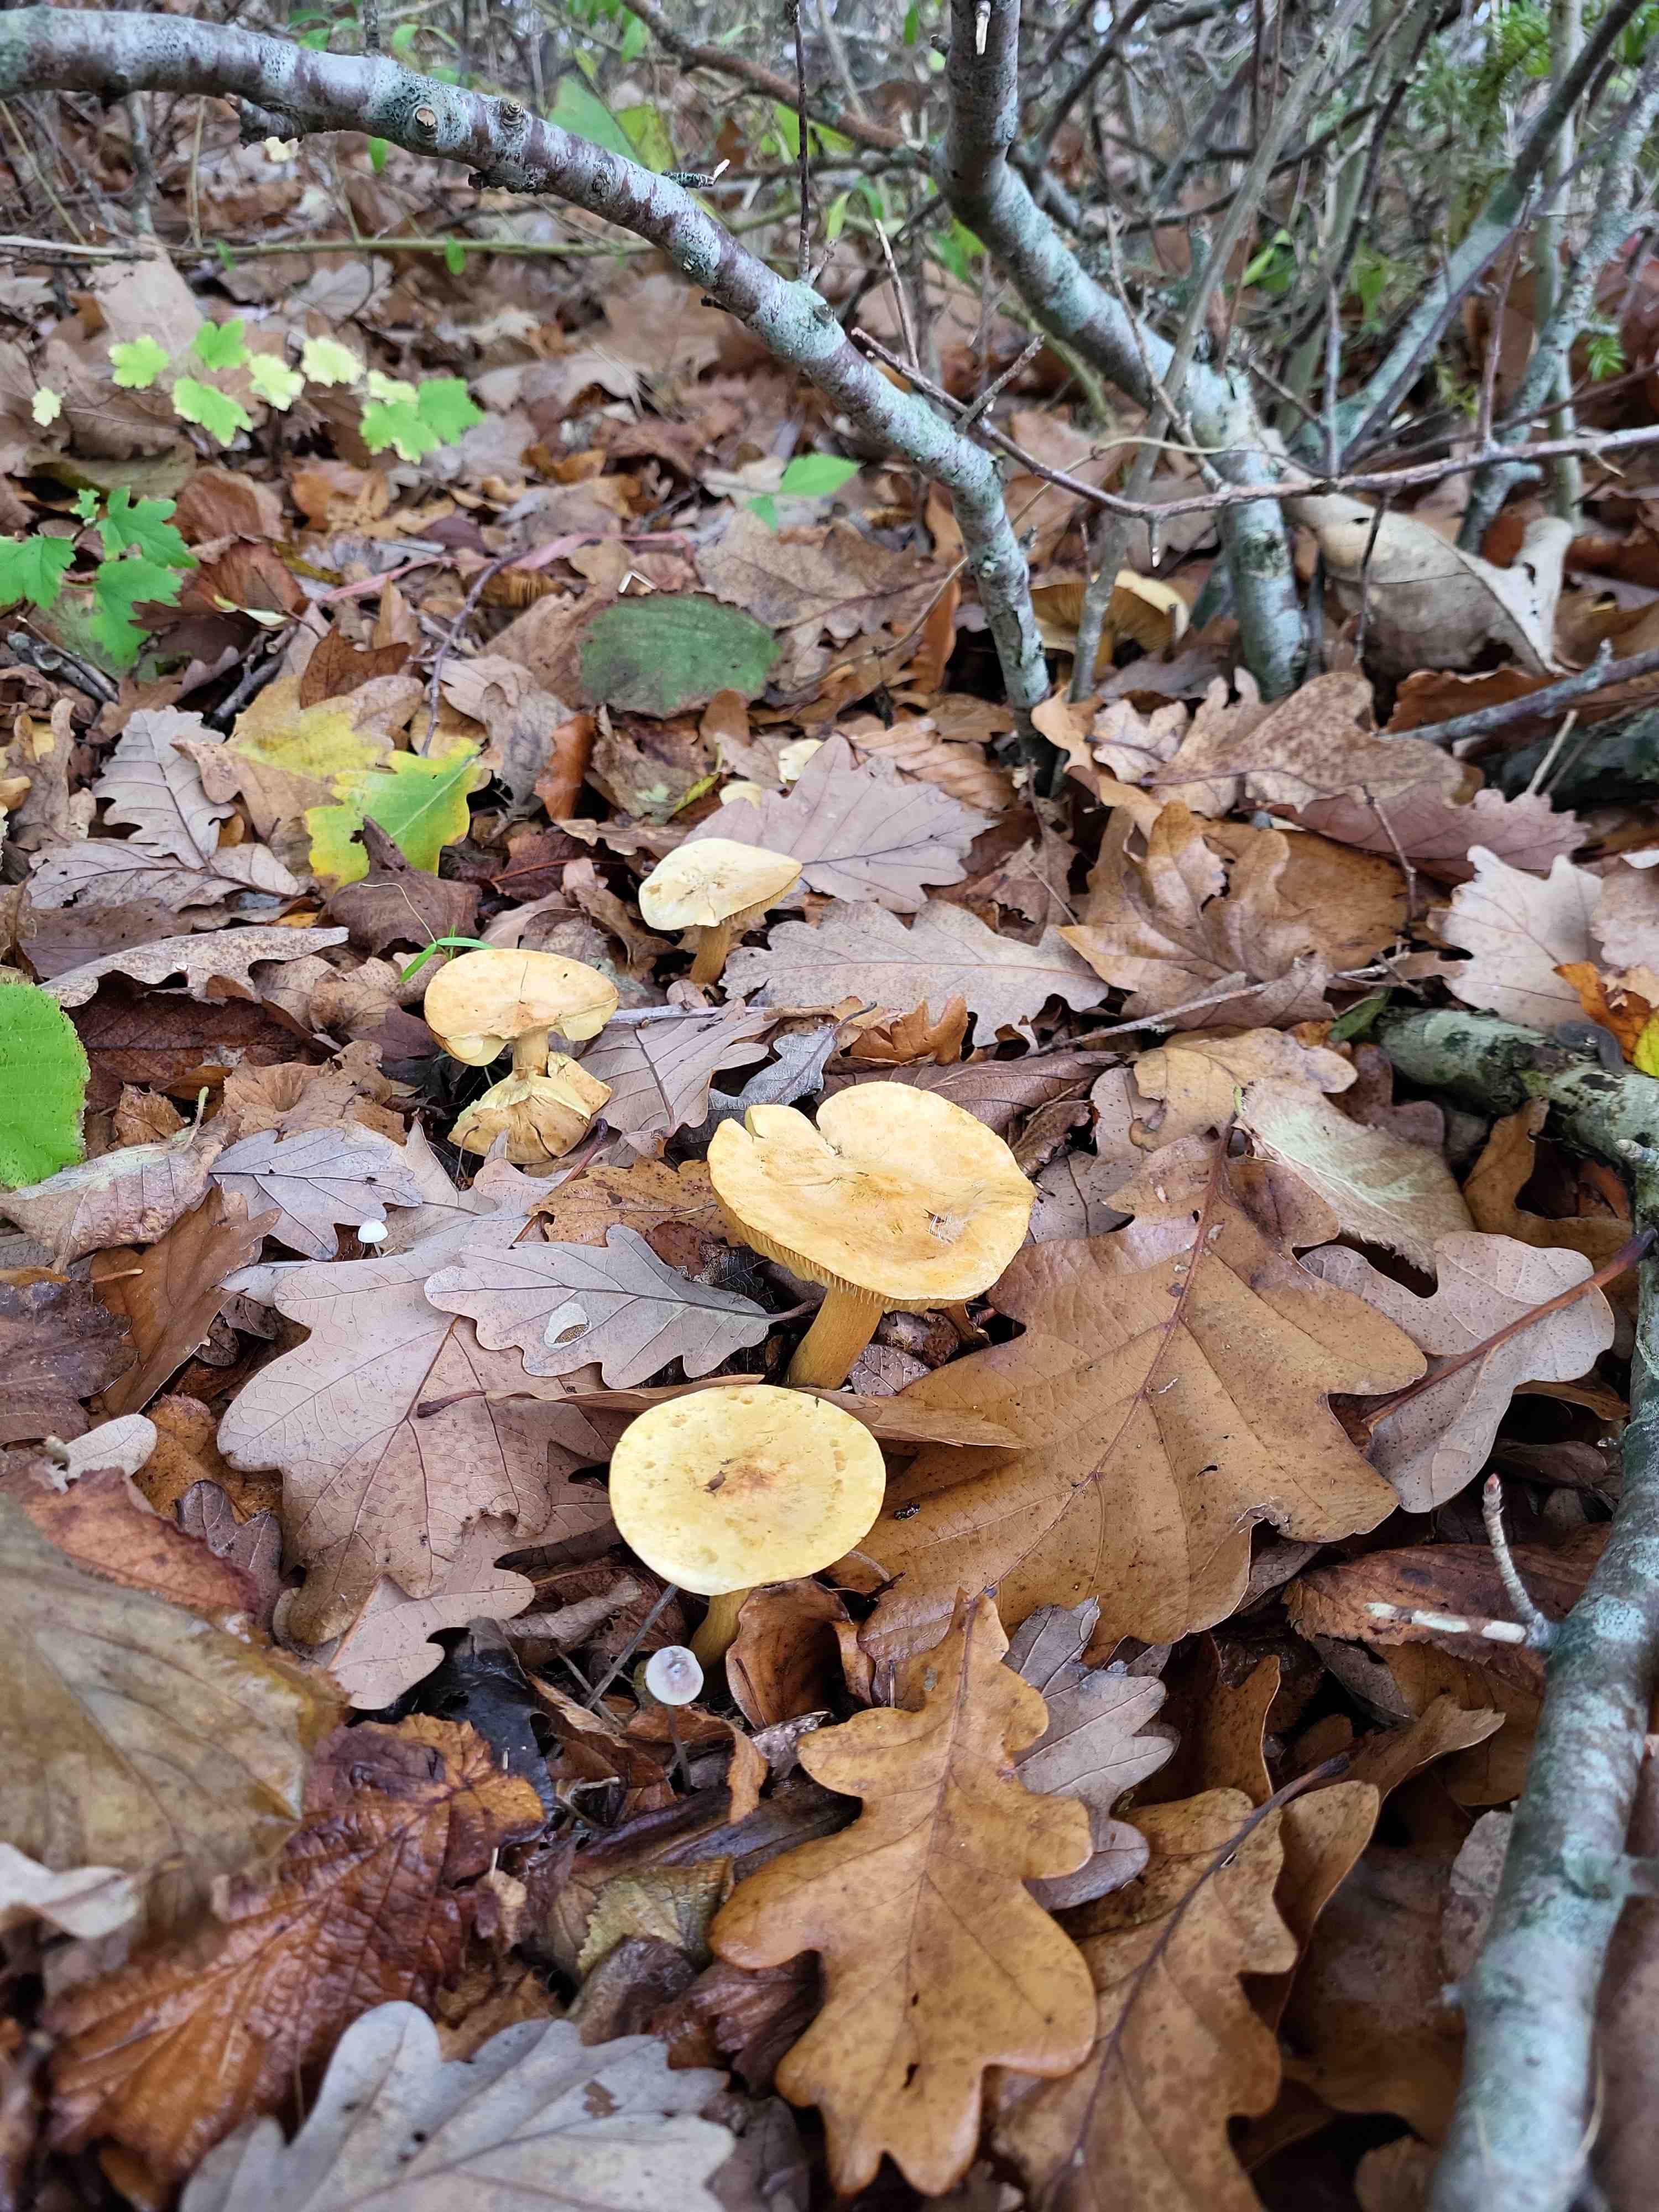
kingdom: Fungi
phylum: Basidiomycota
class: Agaricomycetes
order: Agaricales
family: Tricholomataceae
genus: Tricholoma
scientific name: Tricholoma sulphureum
